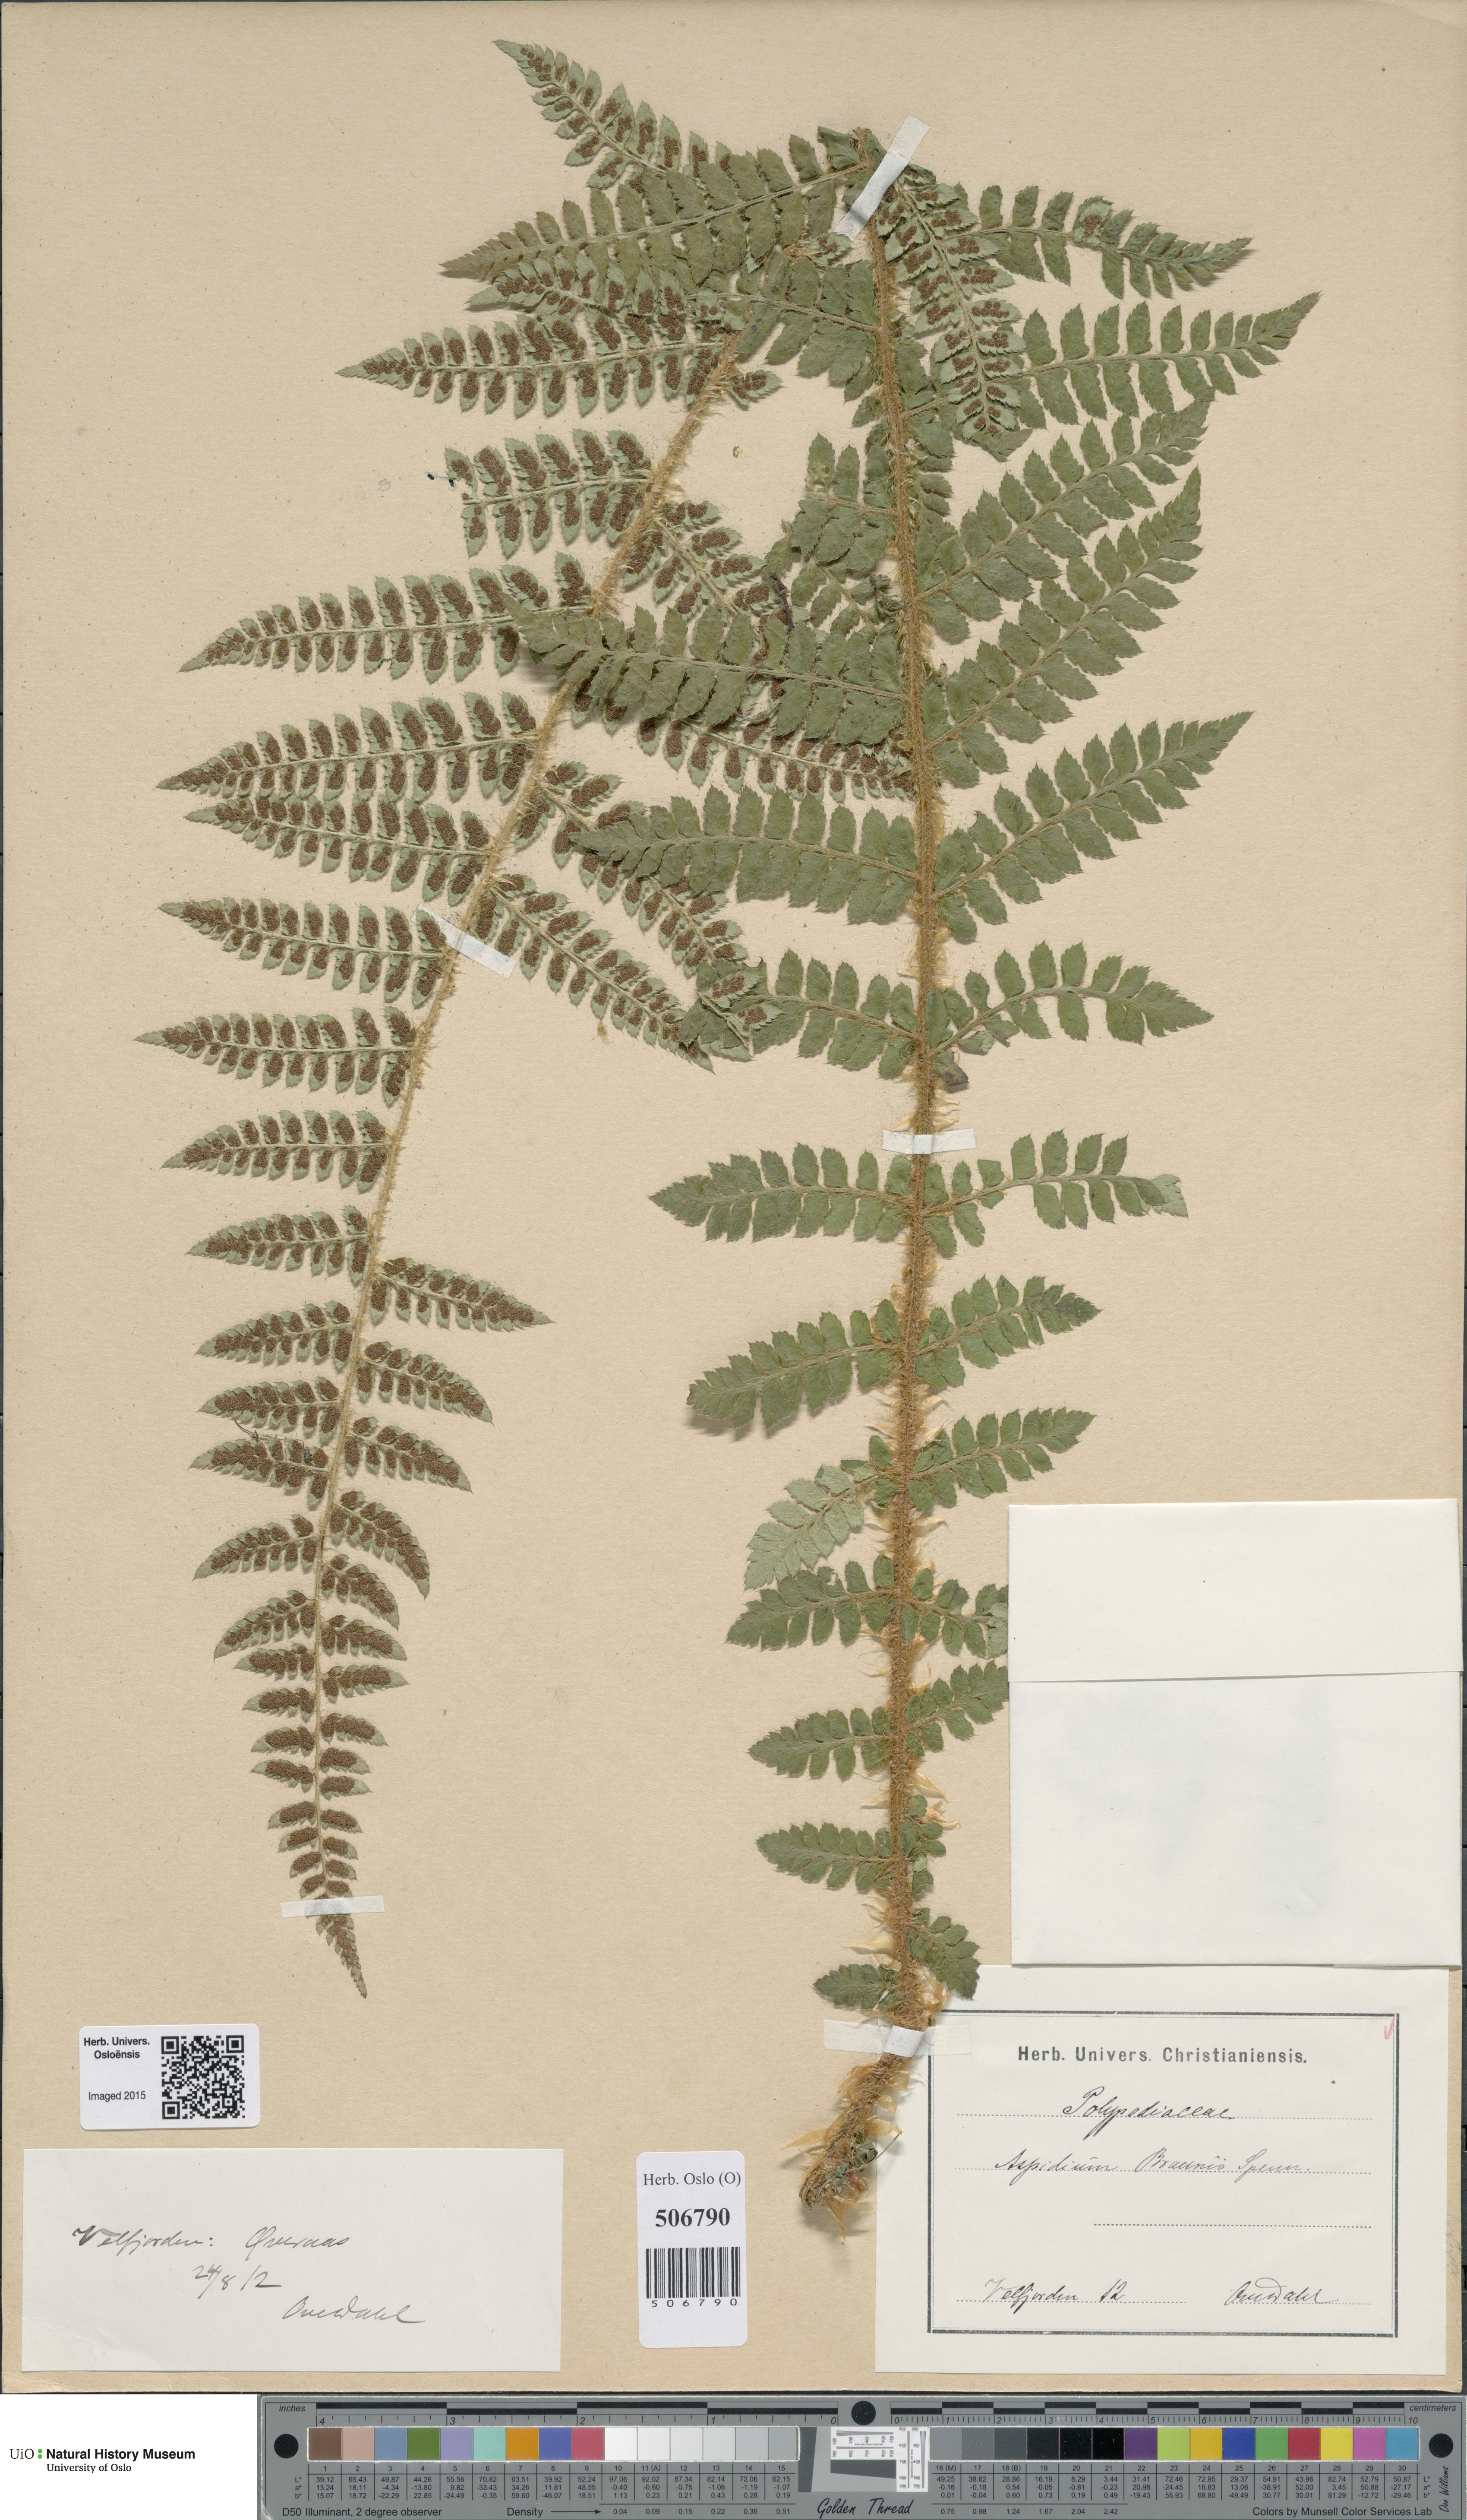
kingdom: Plantae
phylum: Tracheophyta
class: Polypodiopsida
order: Polypodiales
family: Dryopteridaceae
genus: Polystichum
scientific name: Polystichum braunii
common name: Braun's holly fern
